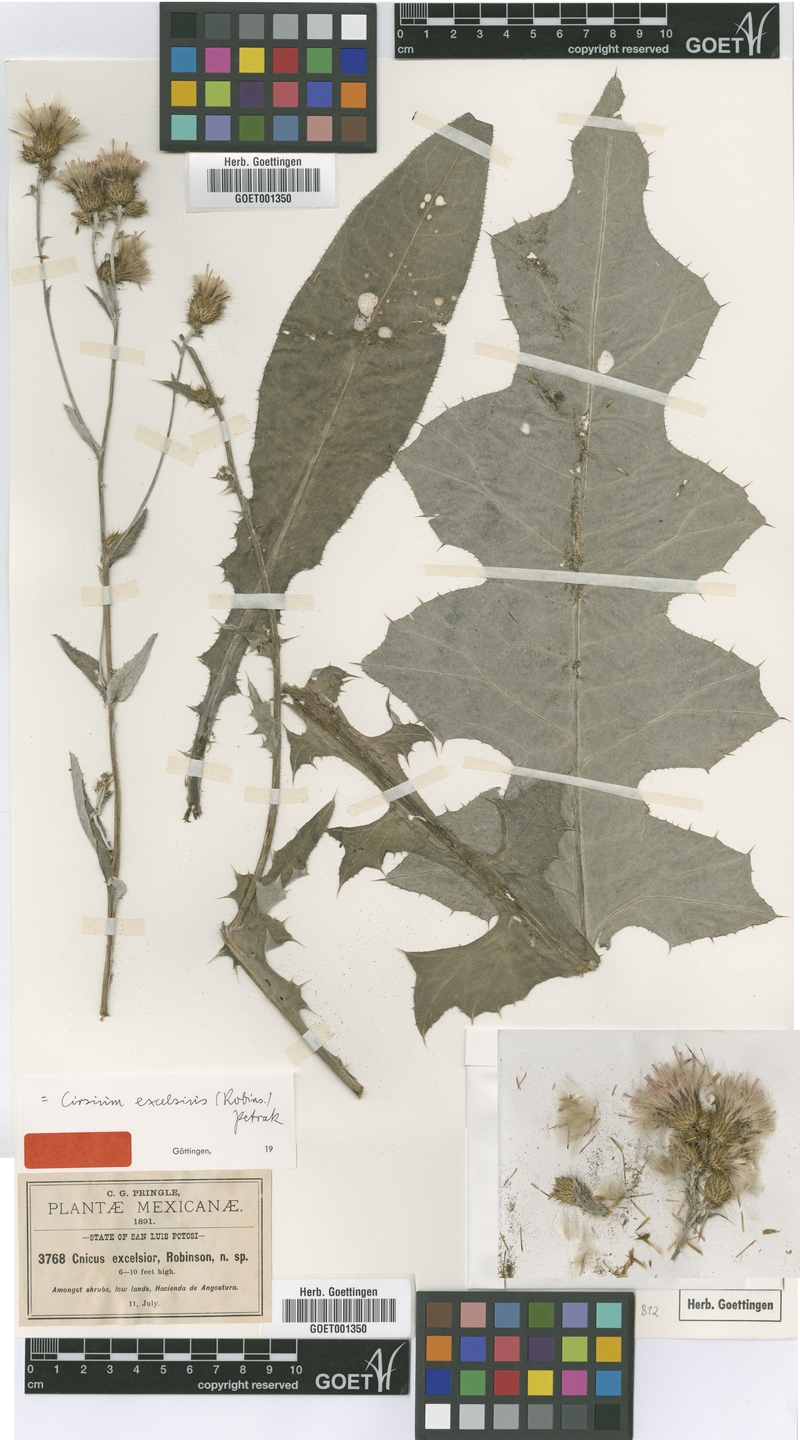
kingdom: Plantae
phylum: Tracheophyta
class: Magnoliopsida
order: Asterales
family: Asteraceae
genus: Cirsium
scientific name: Cirsium excelsius
